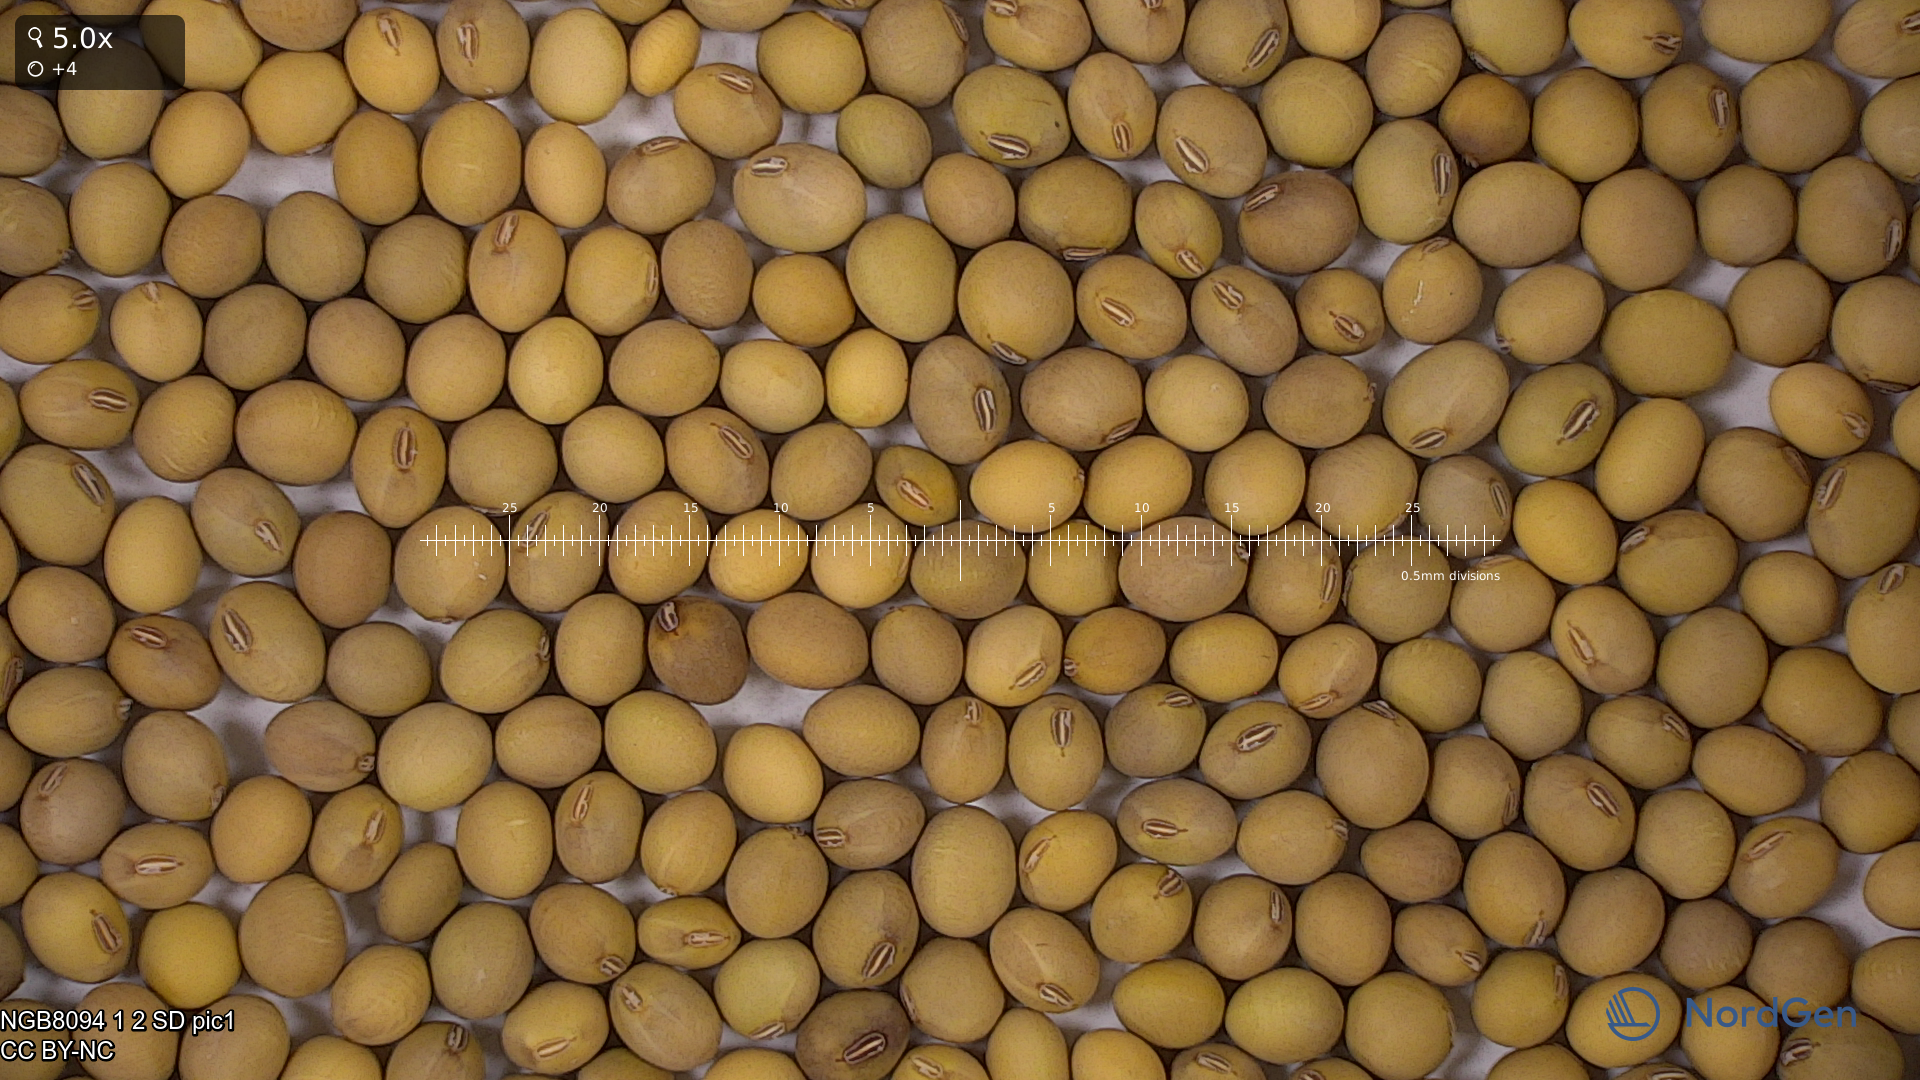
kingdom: Plantae
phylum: Tracheophyta
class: Magnoliopsida
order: Fabales
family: Fabaceae
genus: Glycine
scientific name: Glycine max
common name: Soya-bean
